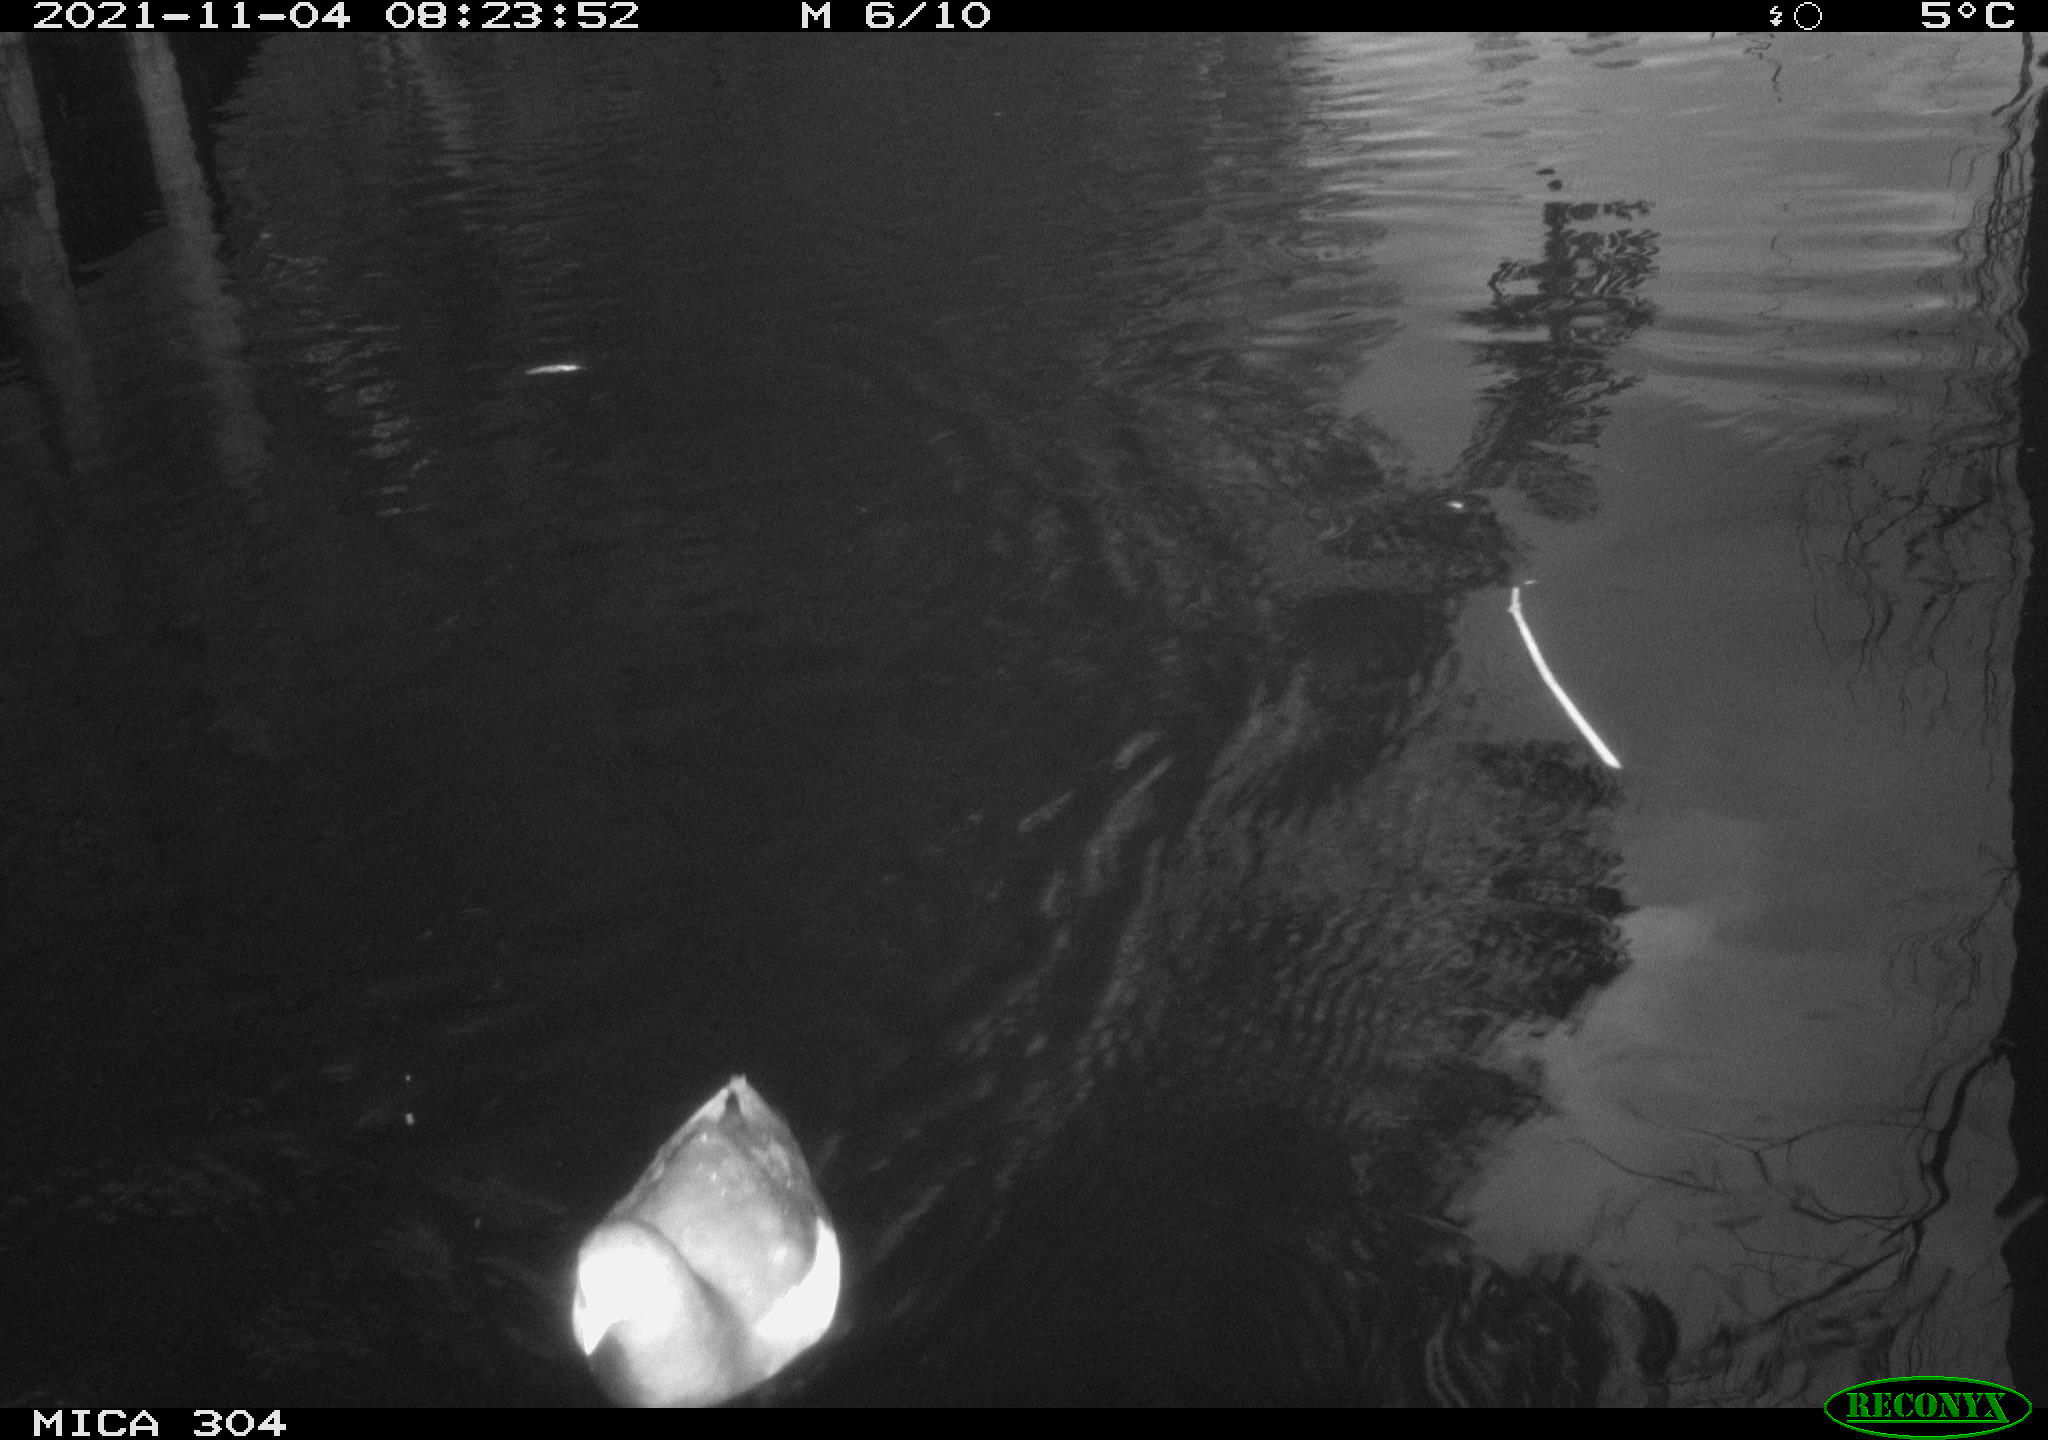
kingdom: Animalia
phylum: Chordata
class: Aves
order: Gruiformes
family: Rallidae
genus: Gallinula
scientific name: Gallinula chloropus
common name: Common moorhen
